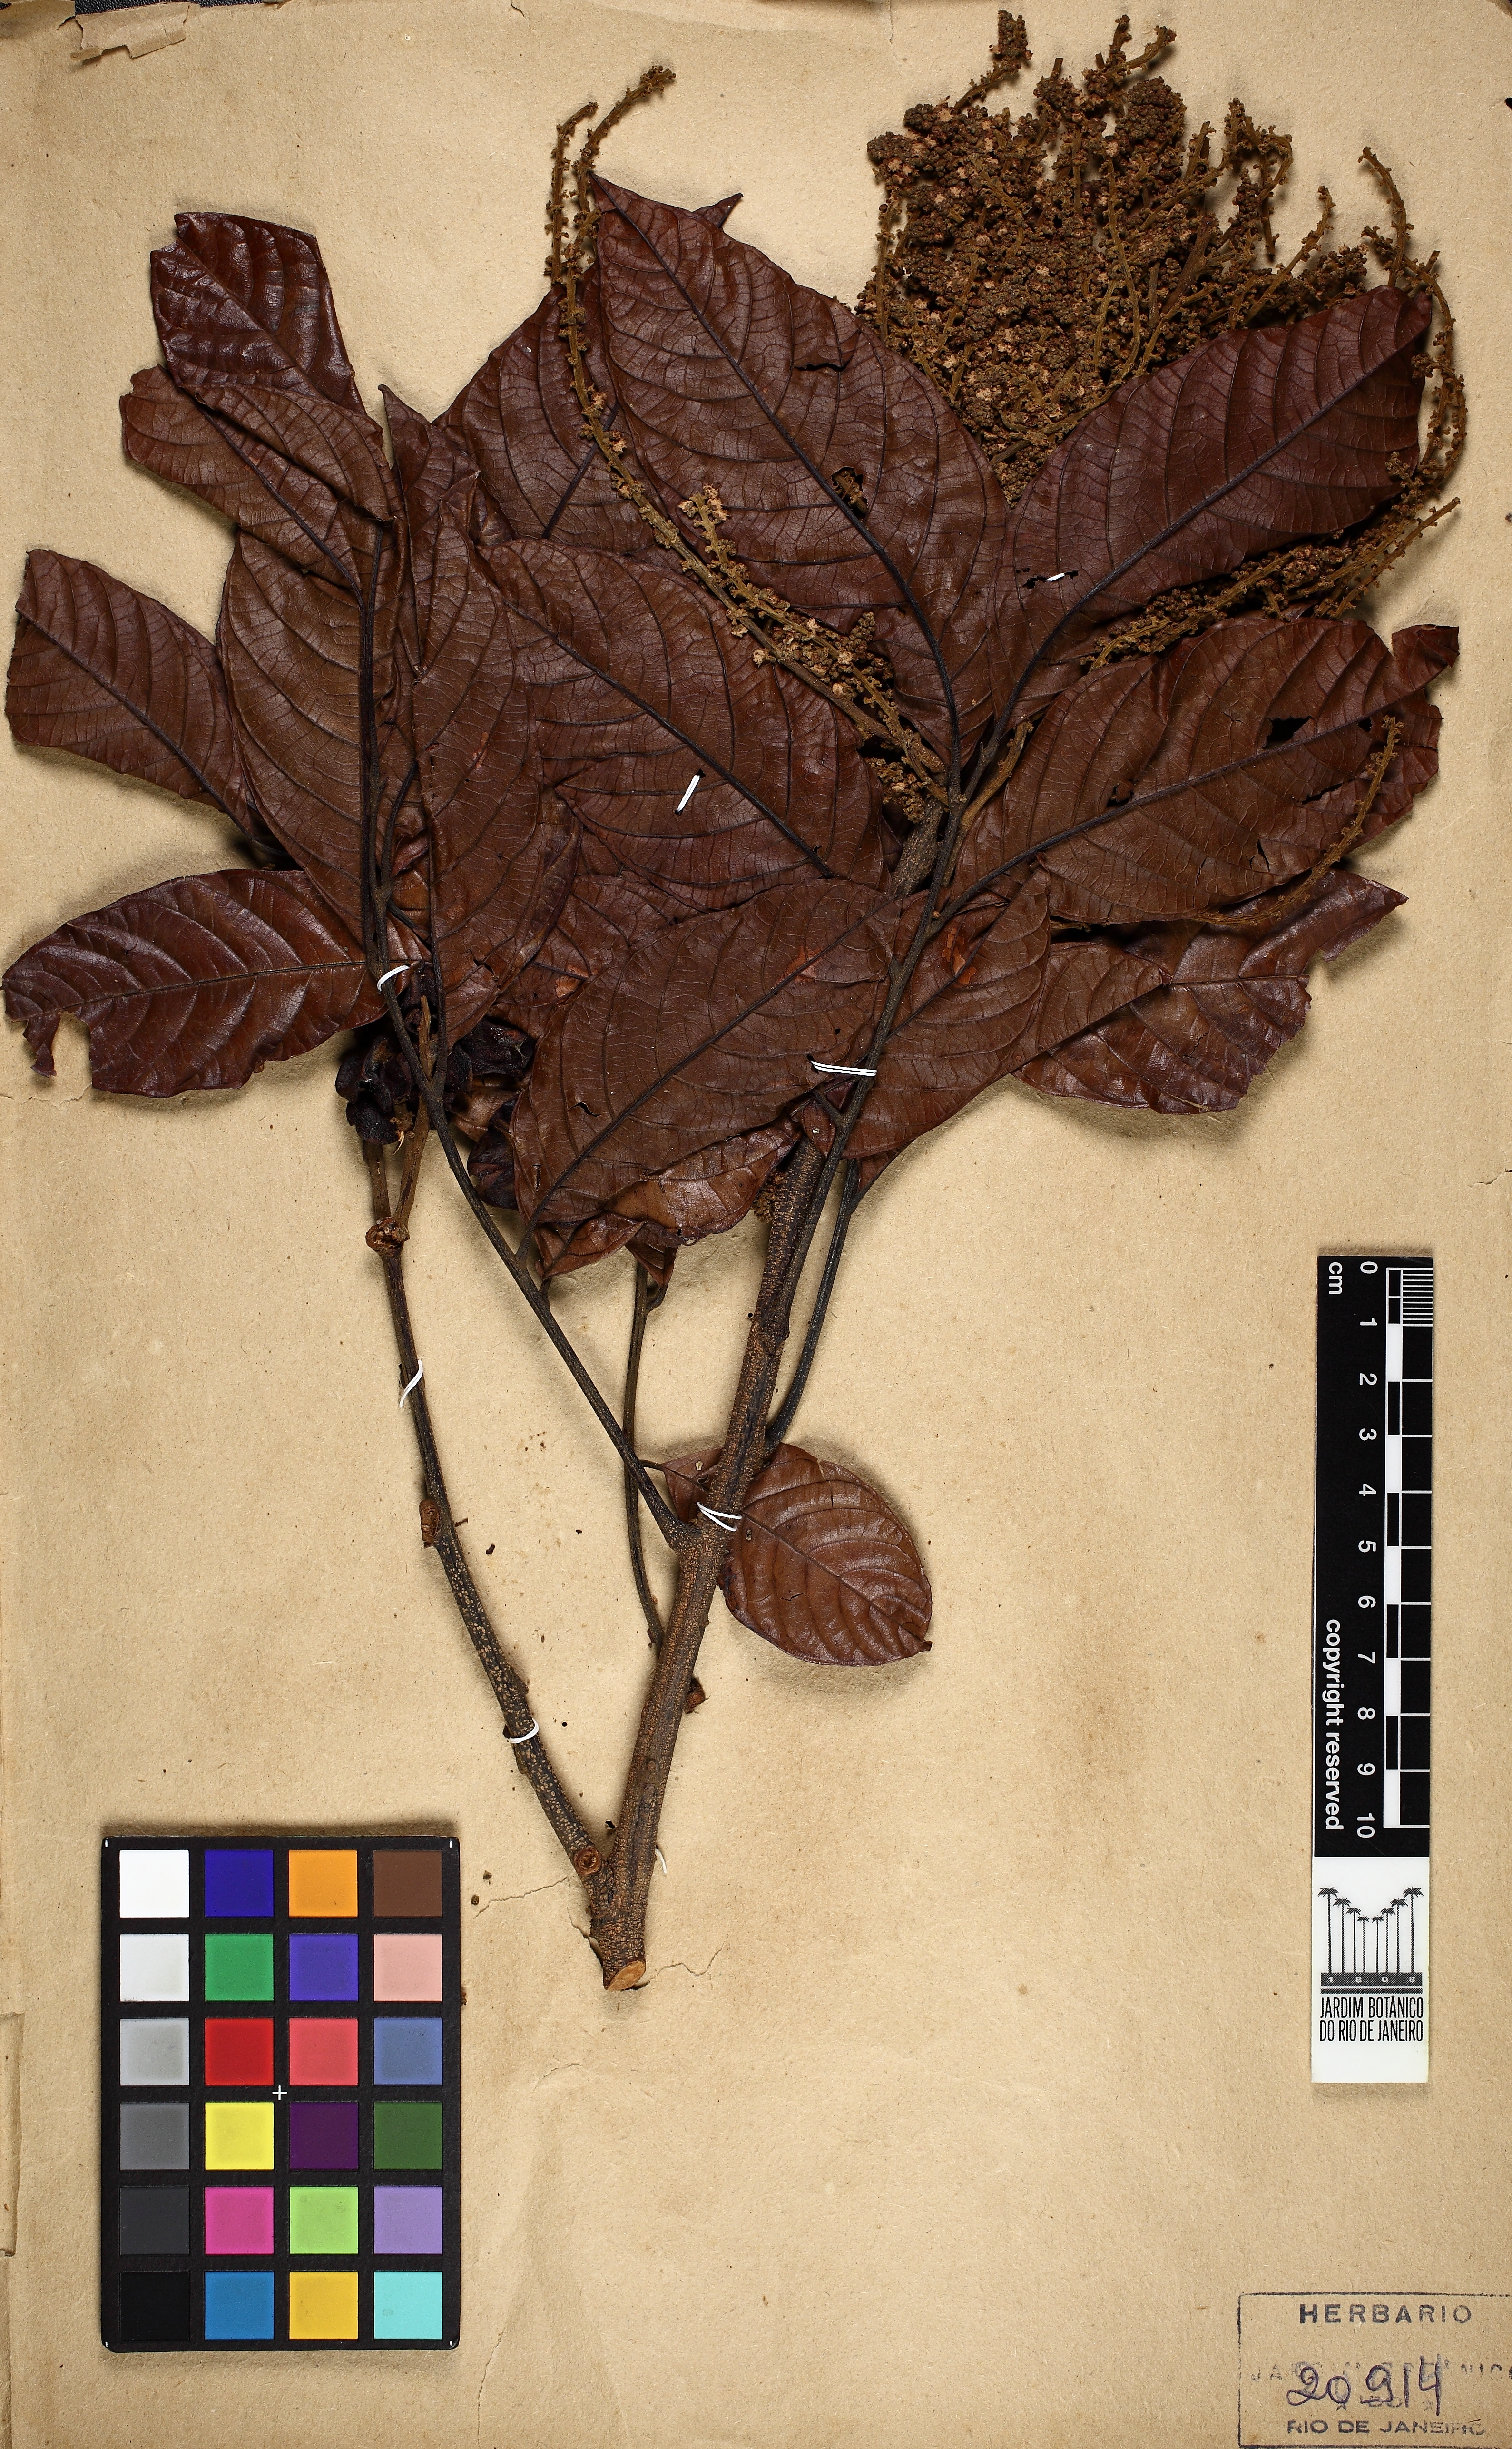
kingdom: Plantae
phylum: Tracheophyta
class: Magnoliopsida
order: Sapindales
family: Sapindaceae
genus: Matayba
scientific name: Matayba adenanthera
